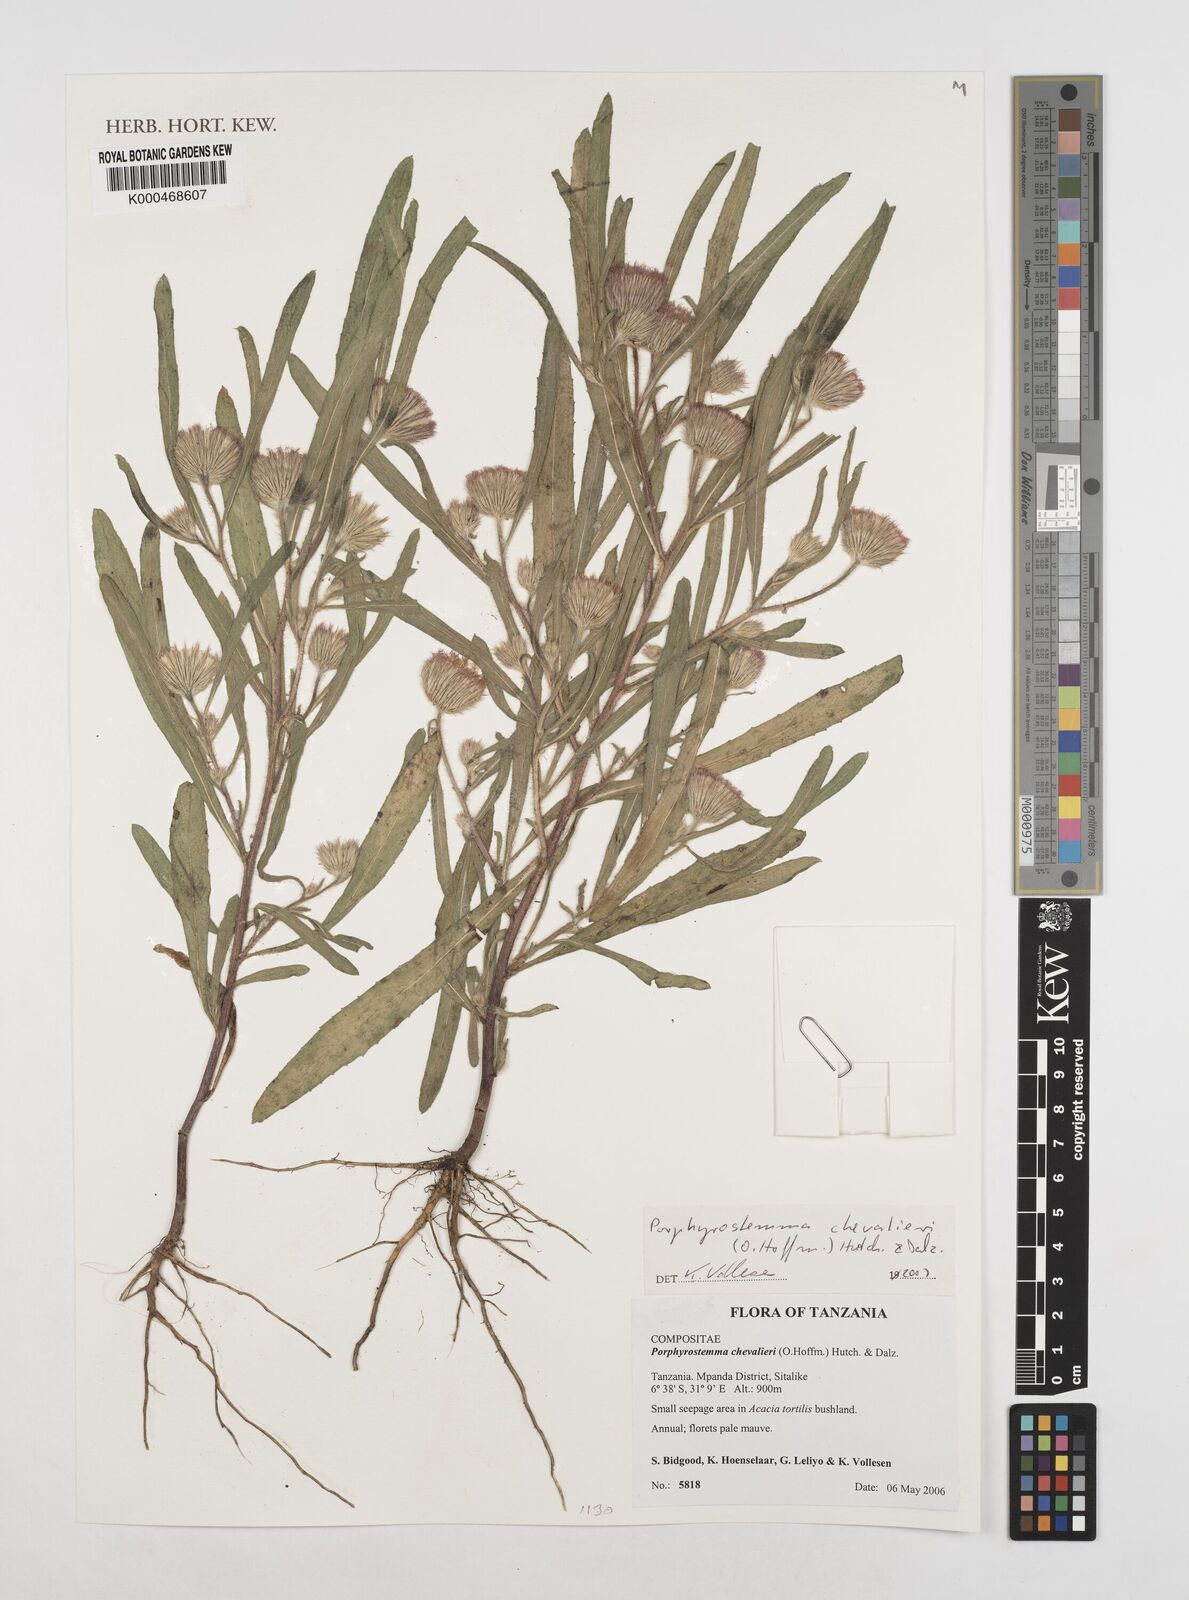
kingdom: Plantae
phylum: Tracheophyta
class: Magnoliopsida
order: Asterales
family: Asteraceae
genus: Porphyrostemma
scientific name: Porphyrostemma chevalieri
